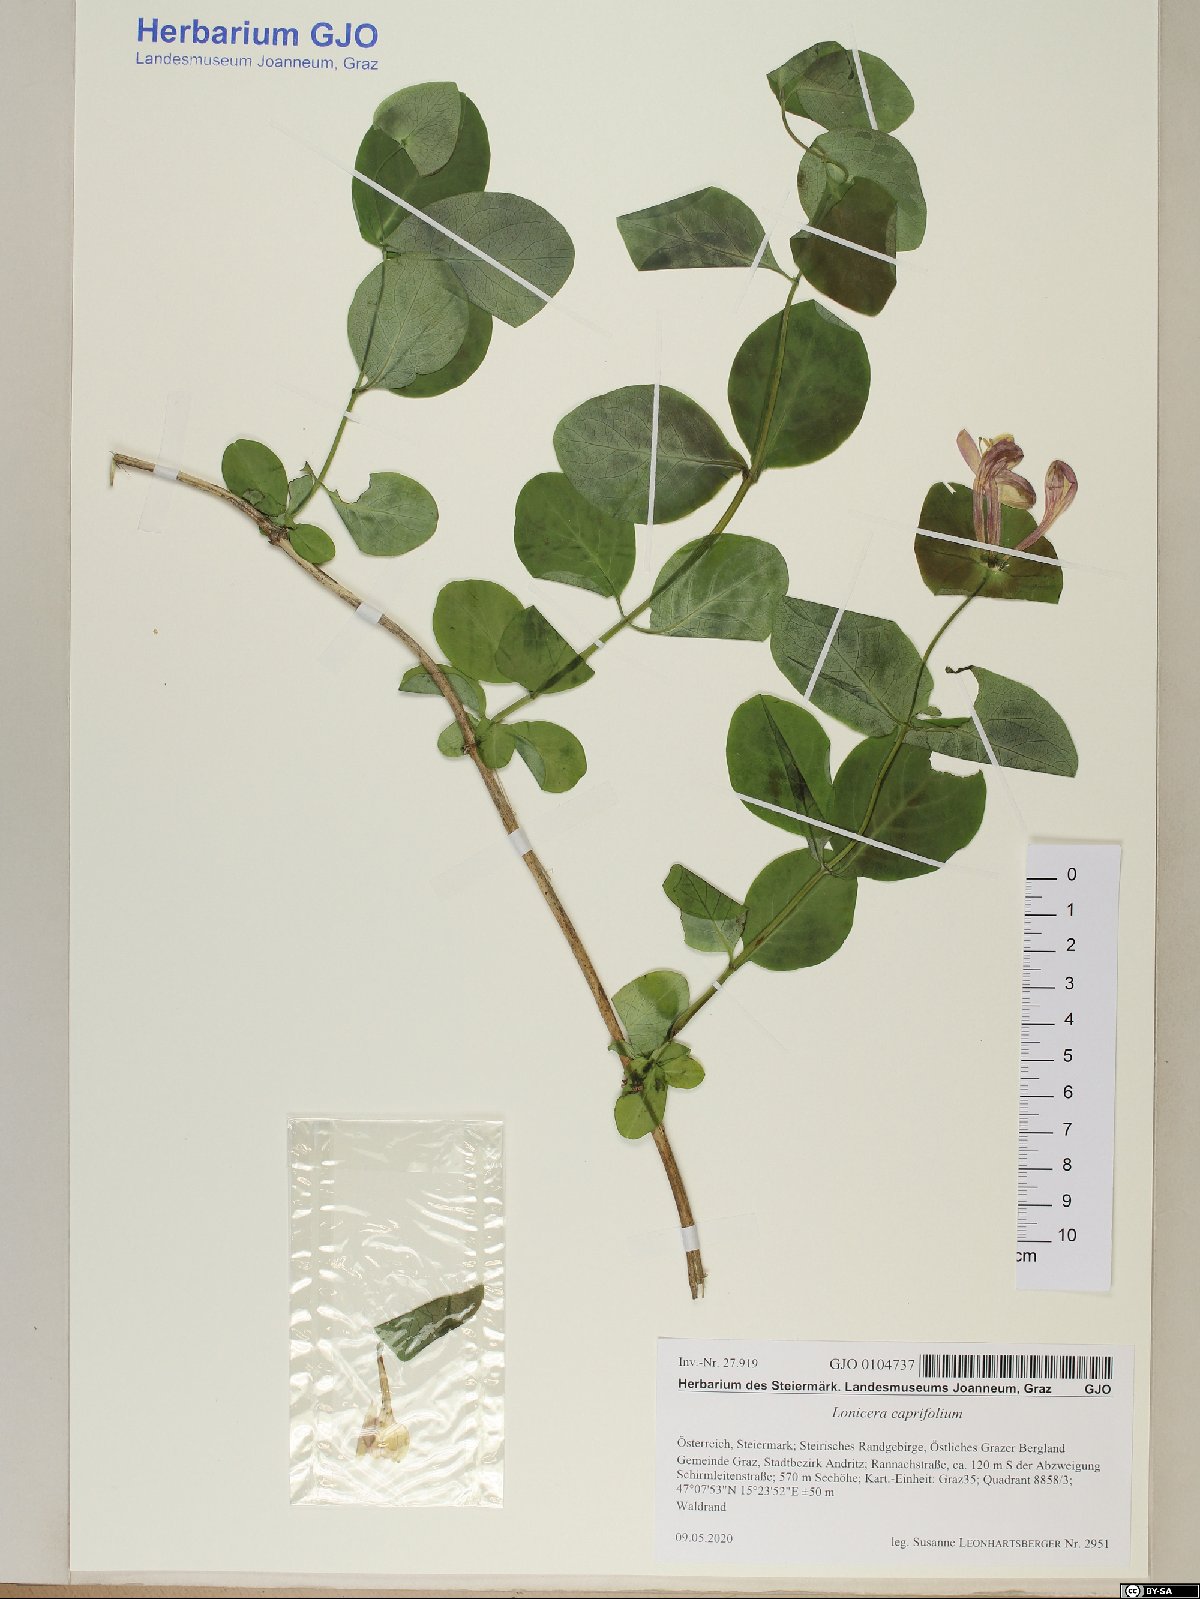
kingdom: Plantae
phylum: Tracheophyta
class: Magnoliopsida
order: Dipsacales
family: Caprifoliaceae
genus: Lonicera
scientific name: Lonicera caprifolium
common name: Perfoliate honeysuckle
